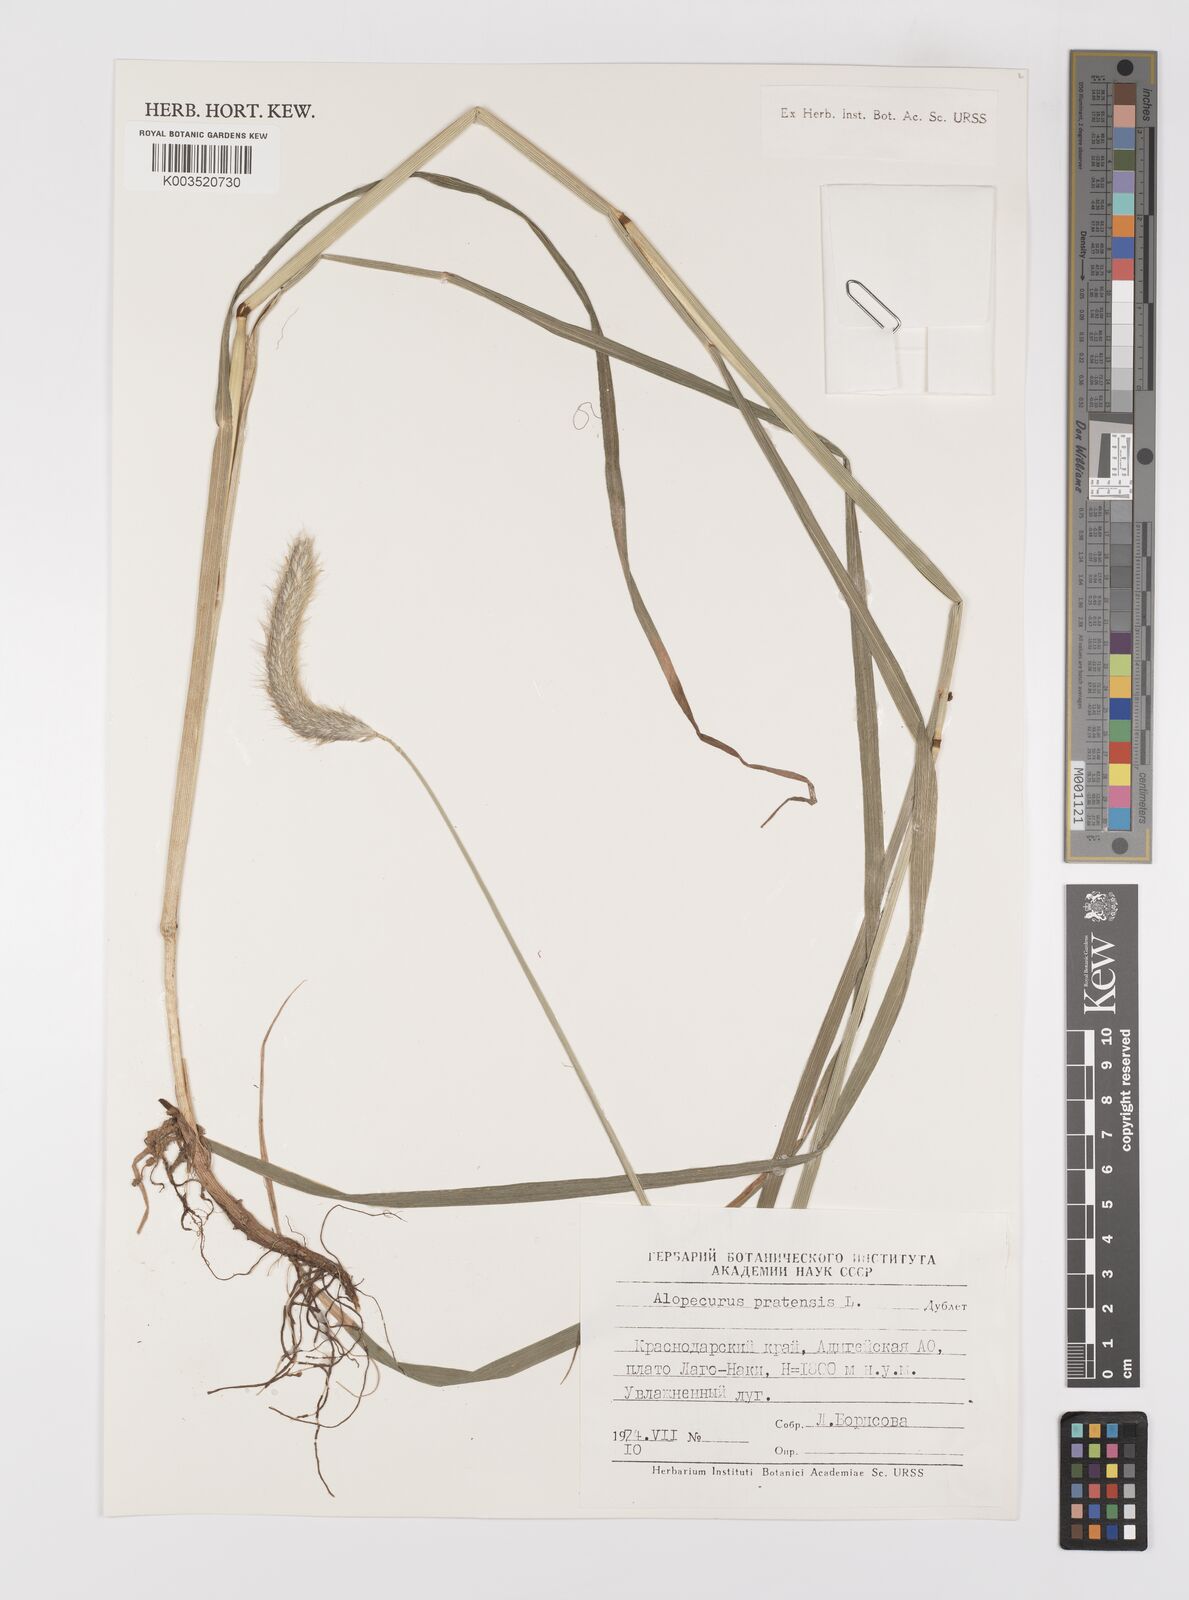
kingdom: Plantae
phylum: Tracheophyta
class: Liliopsida
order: Poales
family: Poaceae
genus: Alopecurus
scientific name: Alopecurus pratensis
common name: Meadow foxtail
